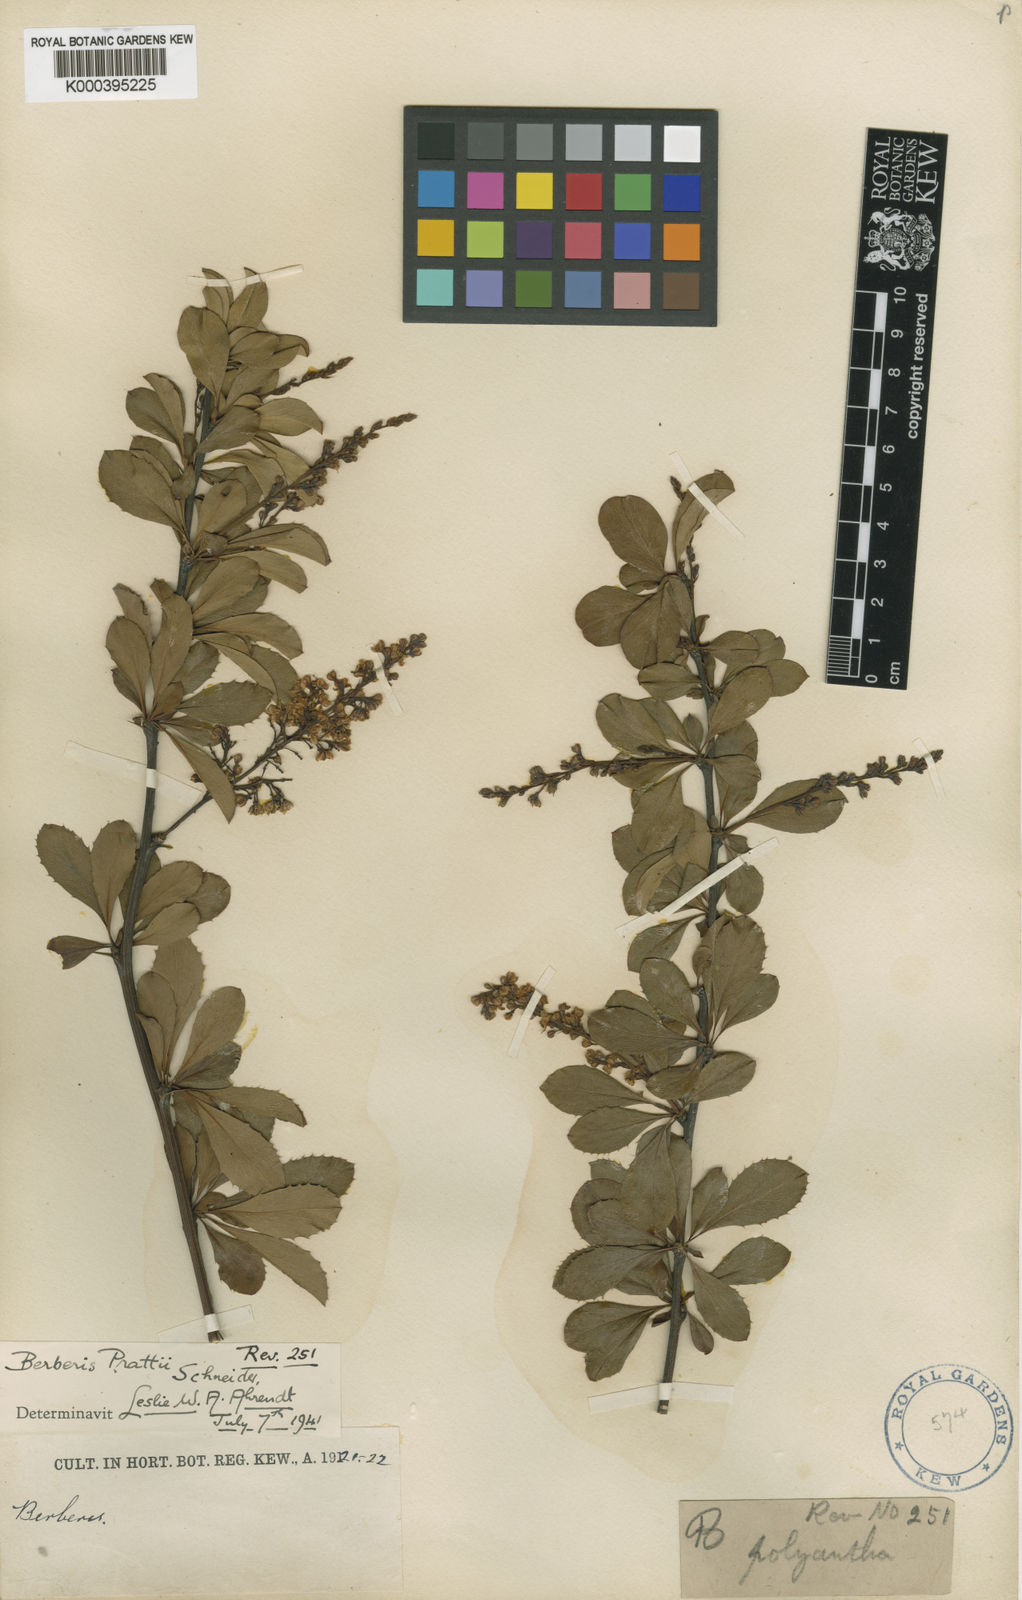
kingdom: Plantae
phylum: Tracheophyta
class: Magnoliopsida
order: Ranunculales
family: Berberidaceae
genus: Berberis
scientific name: Berberis prattii
